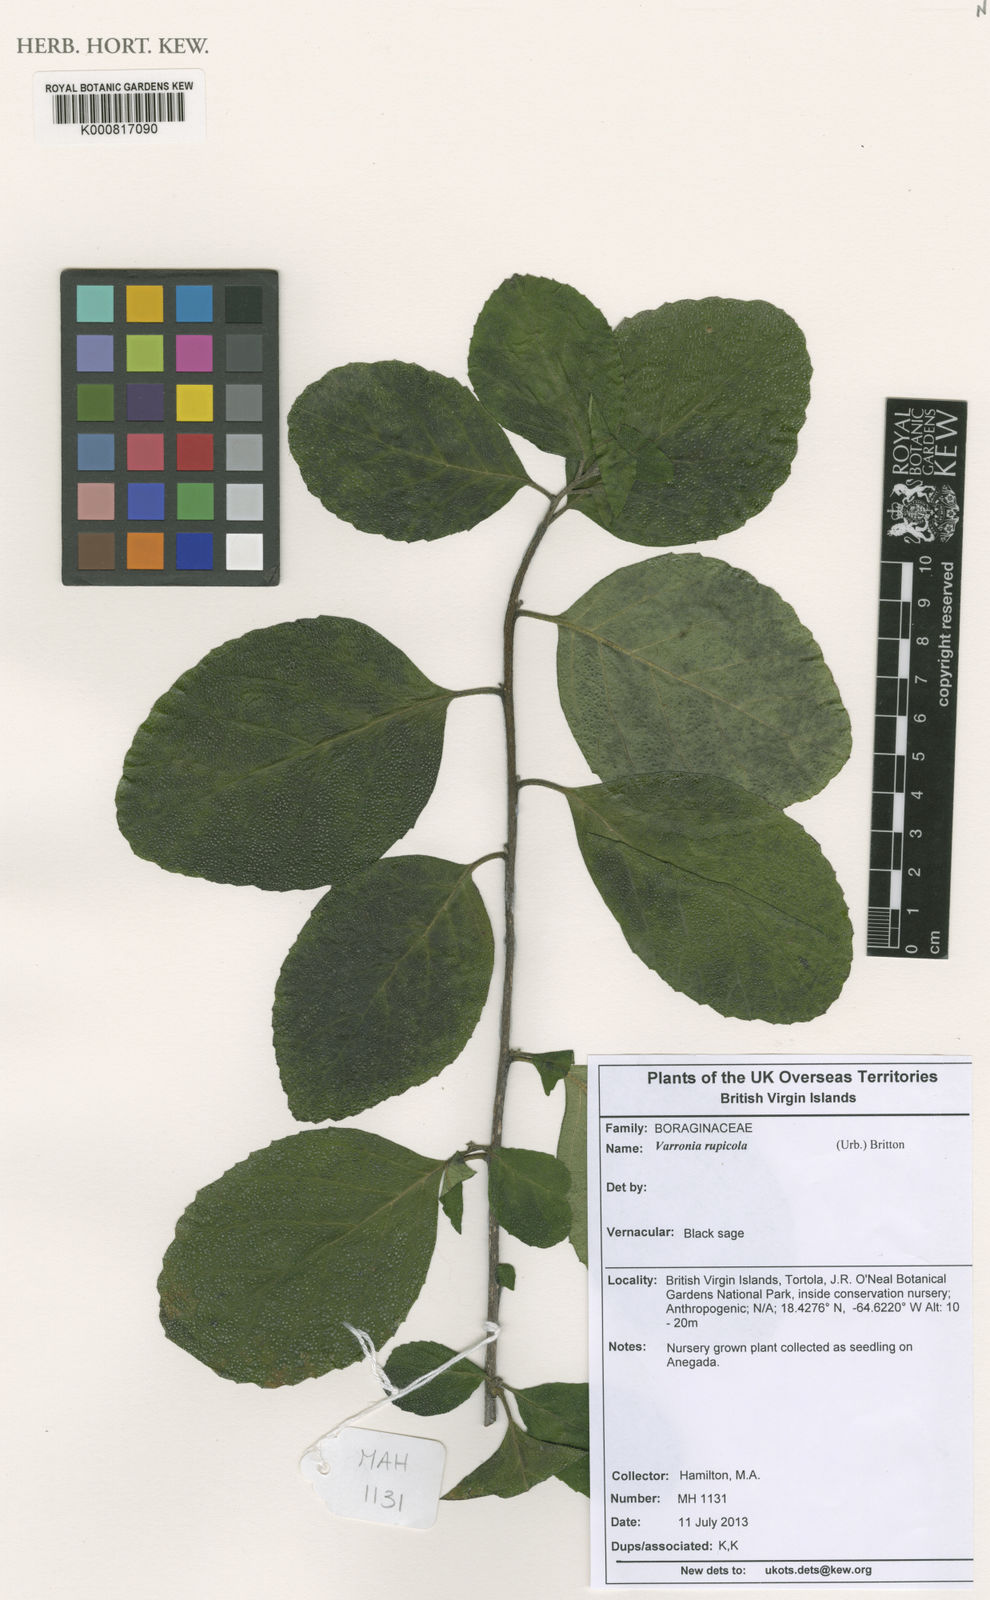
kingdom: Plantae
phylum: Tracheophyta
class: Magnoliopsida
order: Boraginales
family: Cordiaceae
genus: Varronia
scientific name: Varronia rupicola
